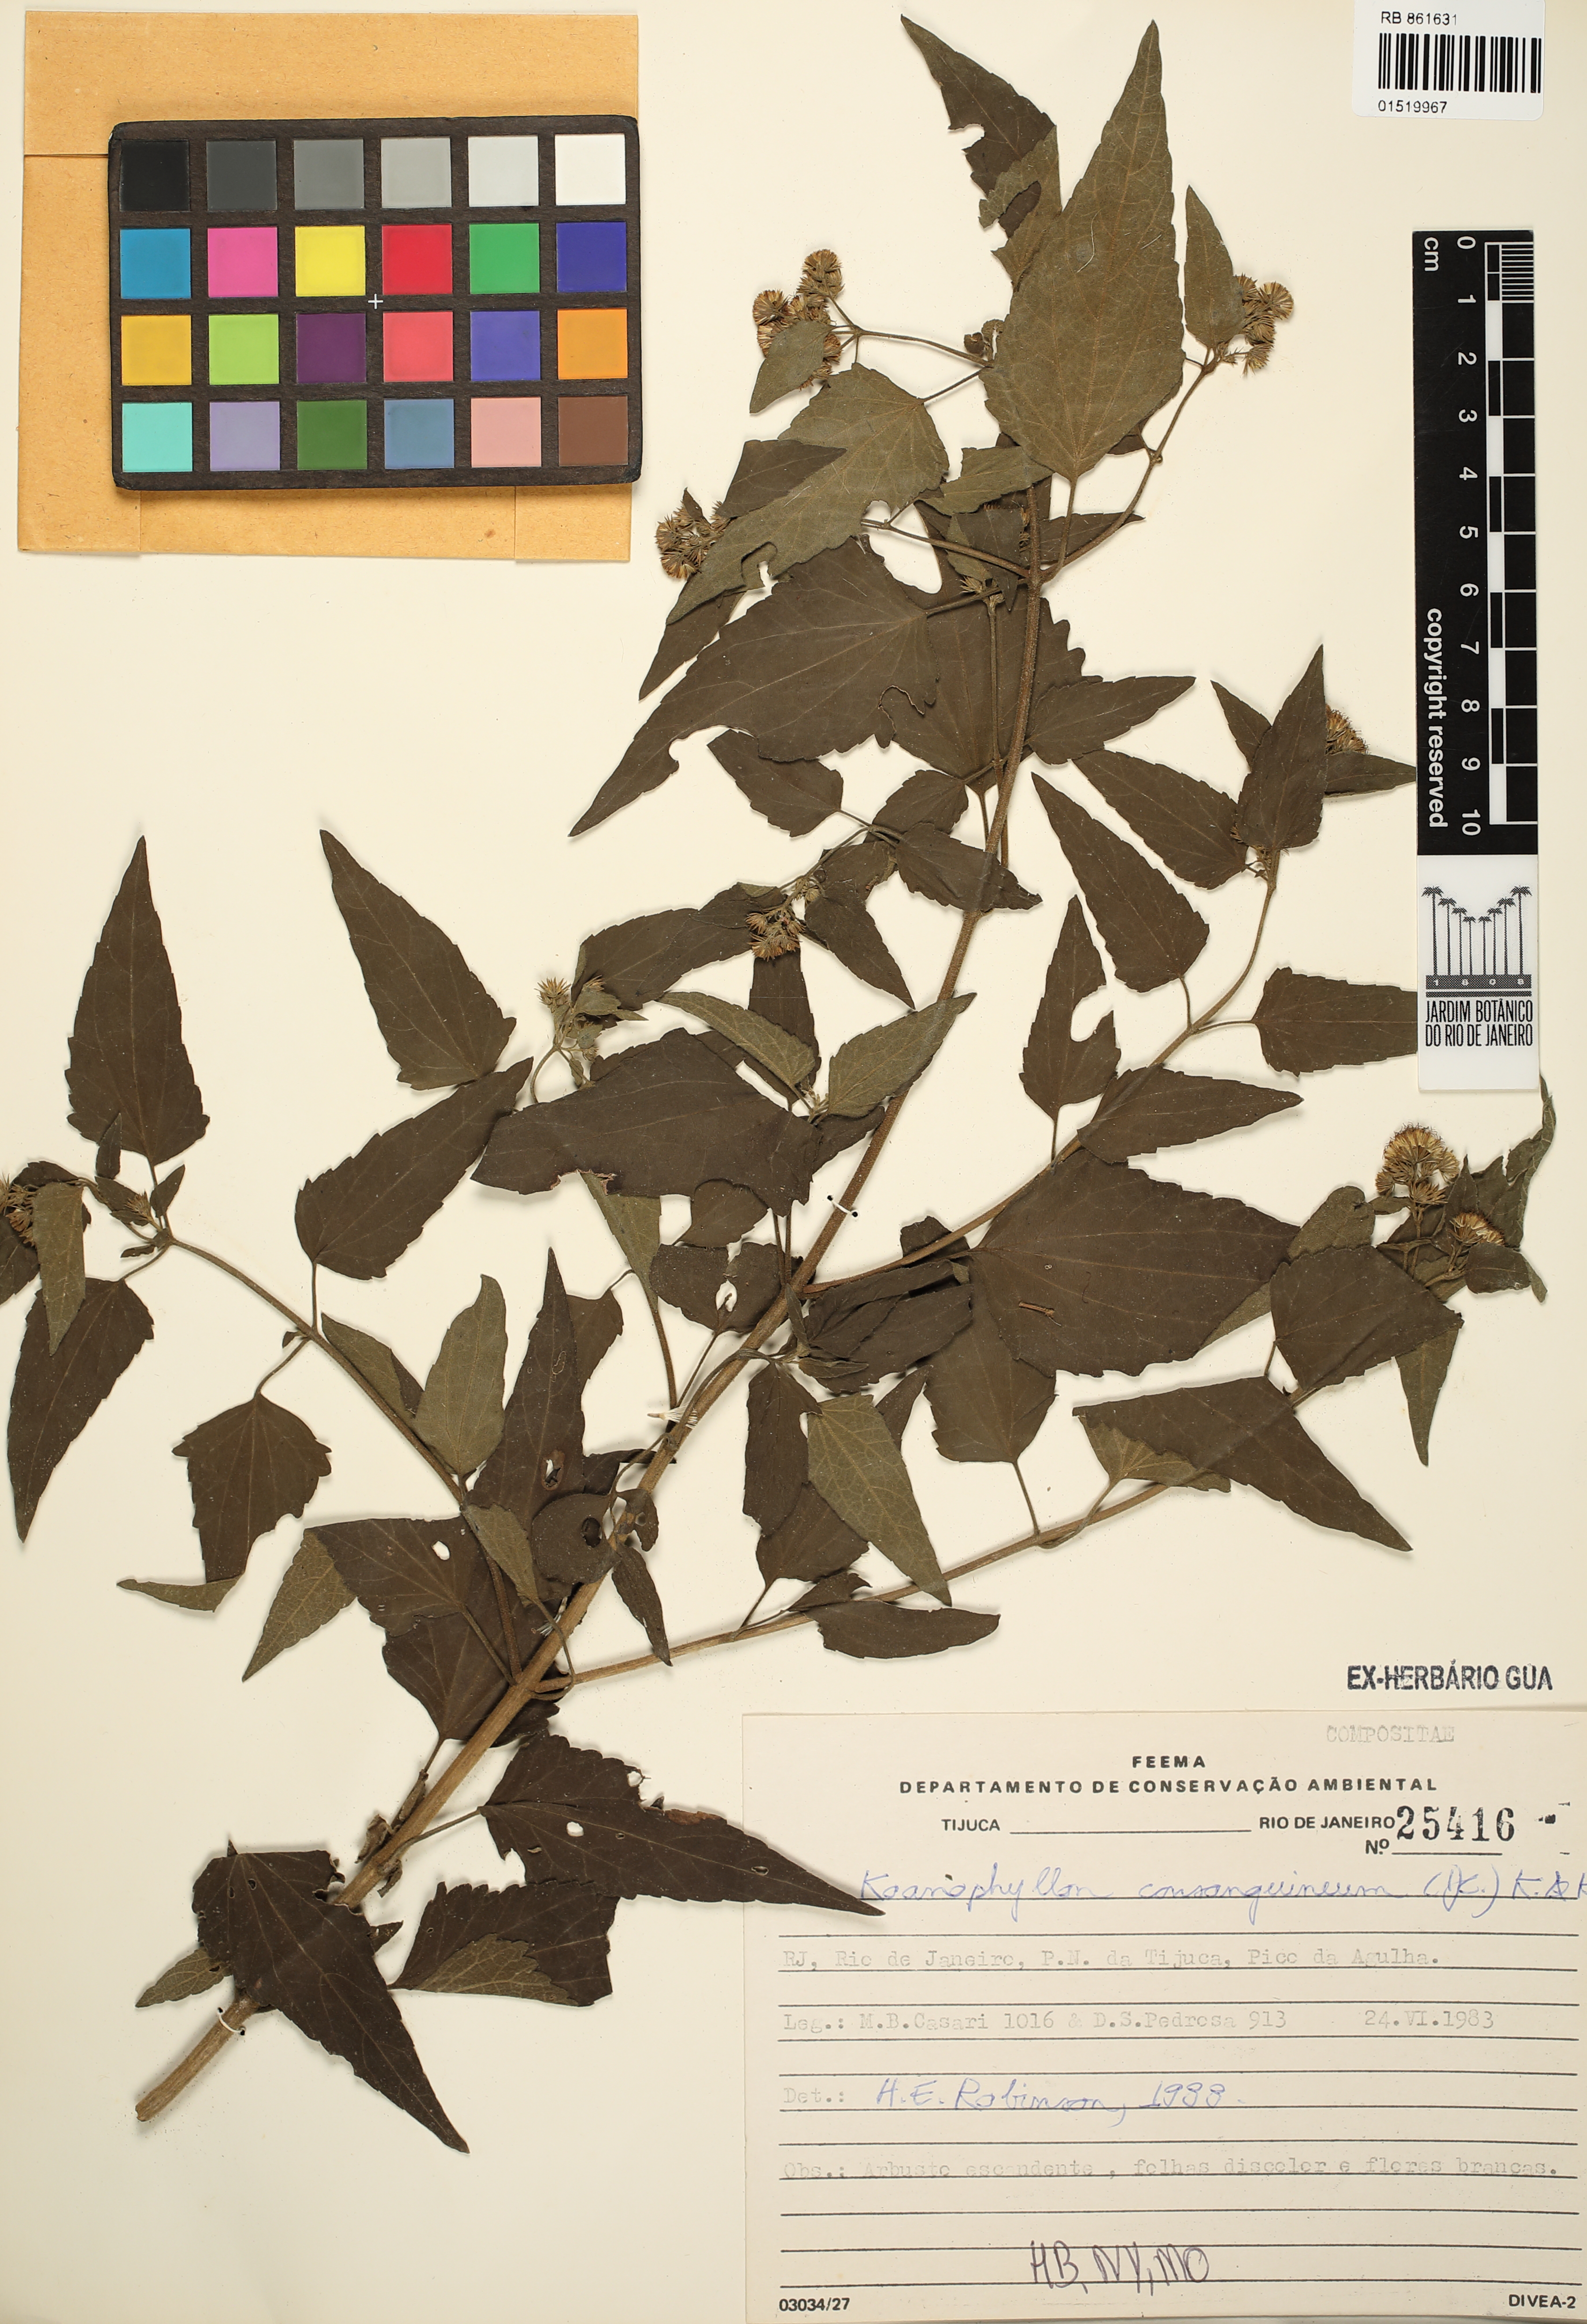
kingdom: Plantae
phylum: Tracheophyta
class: Magnoliopsida
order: Asterales
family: Asteraceae
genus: Koanophyllon
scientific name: Koanophyllon consanguineum
